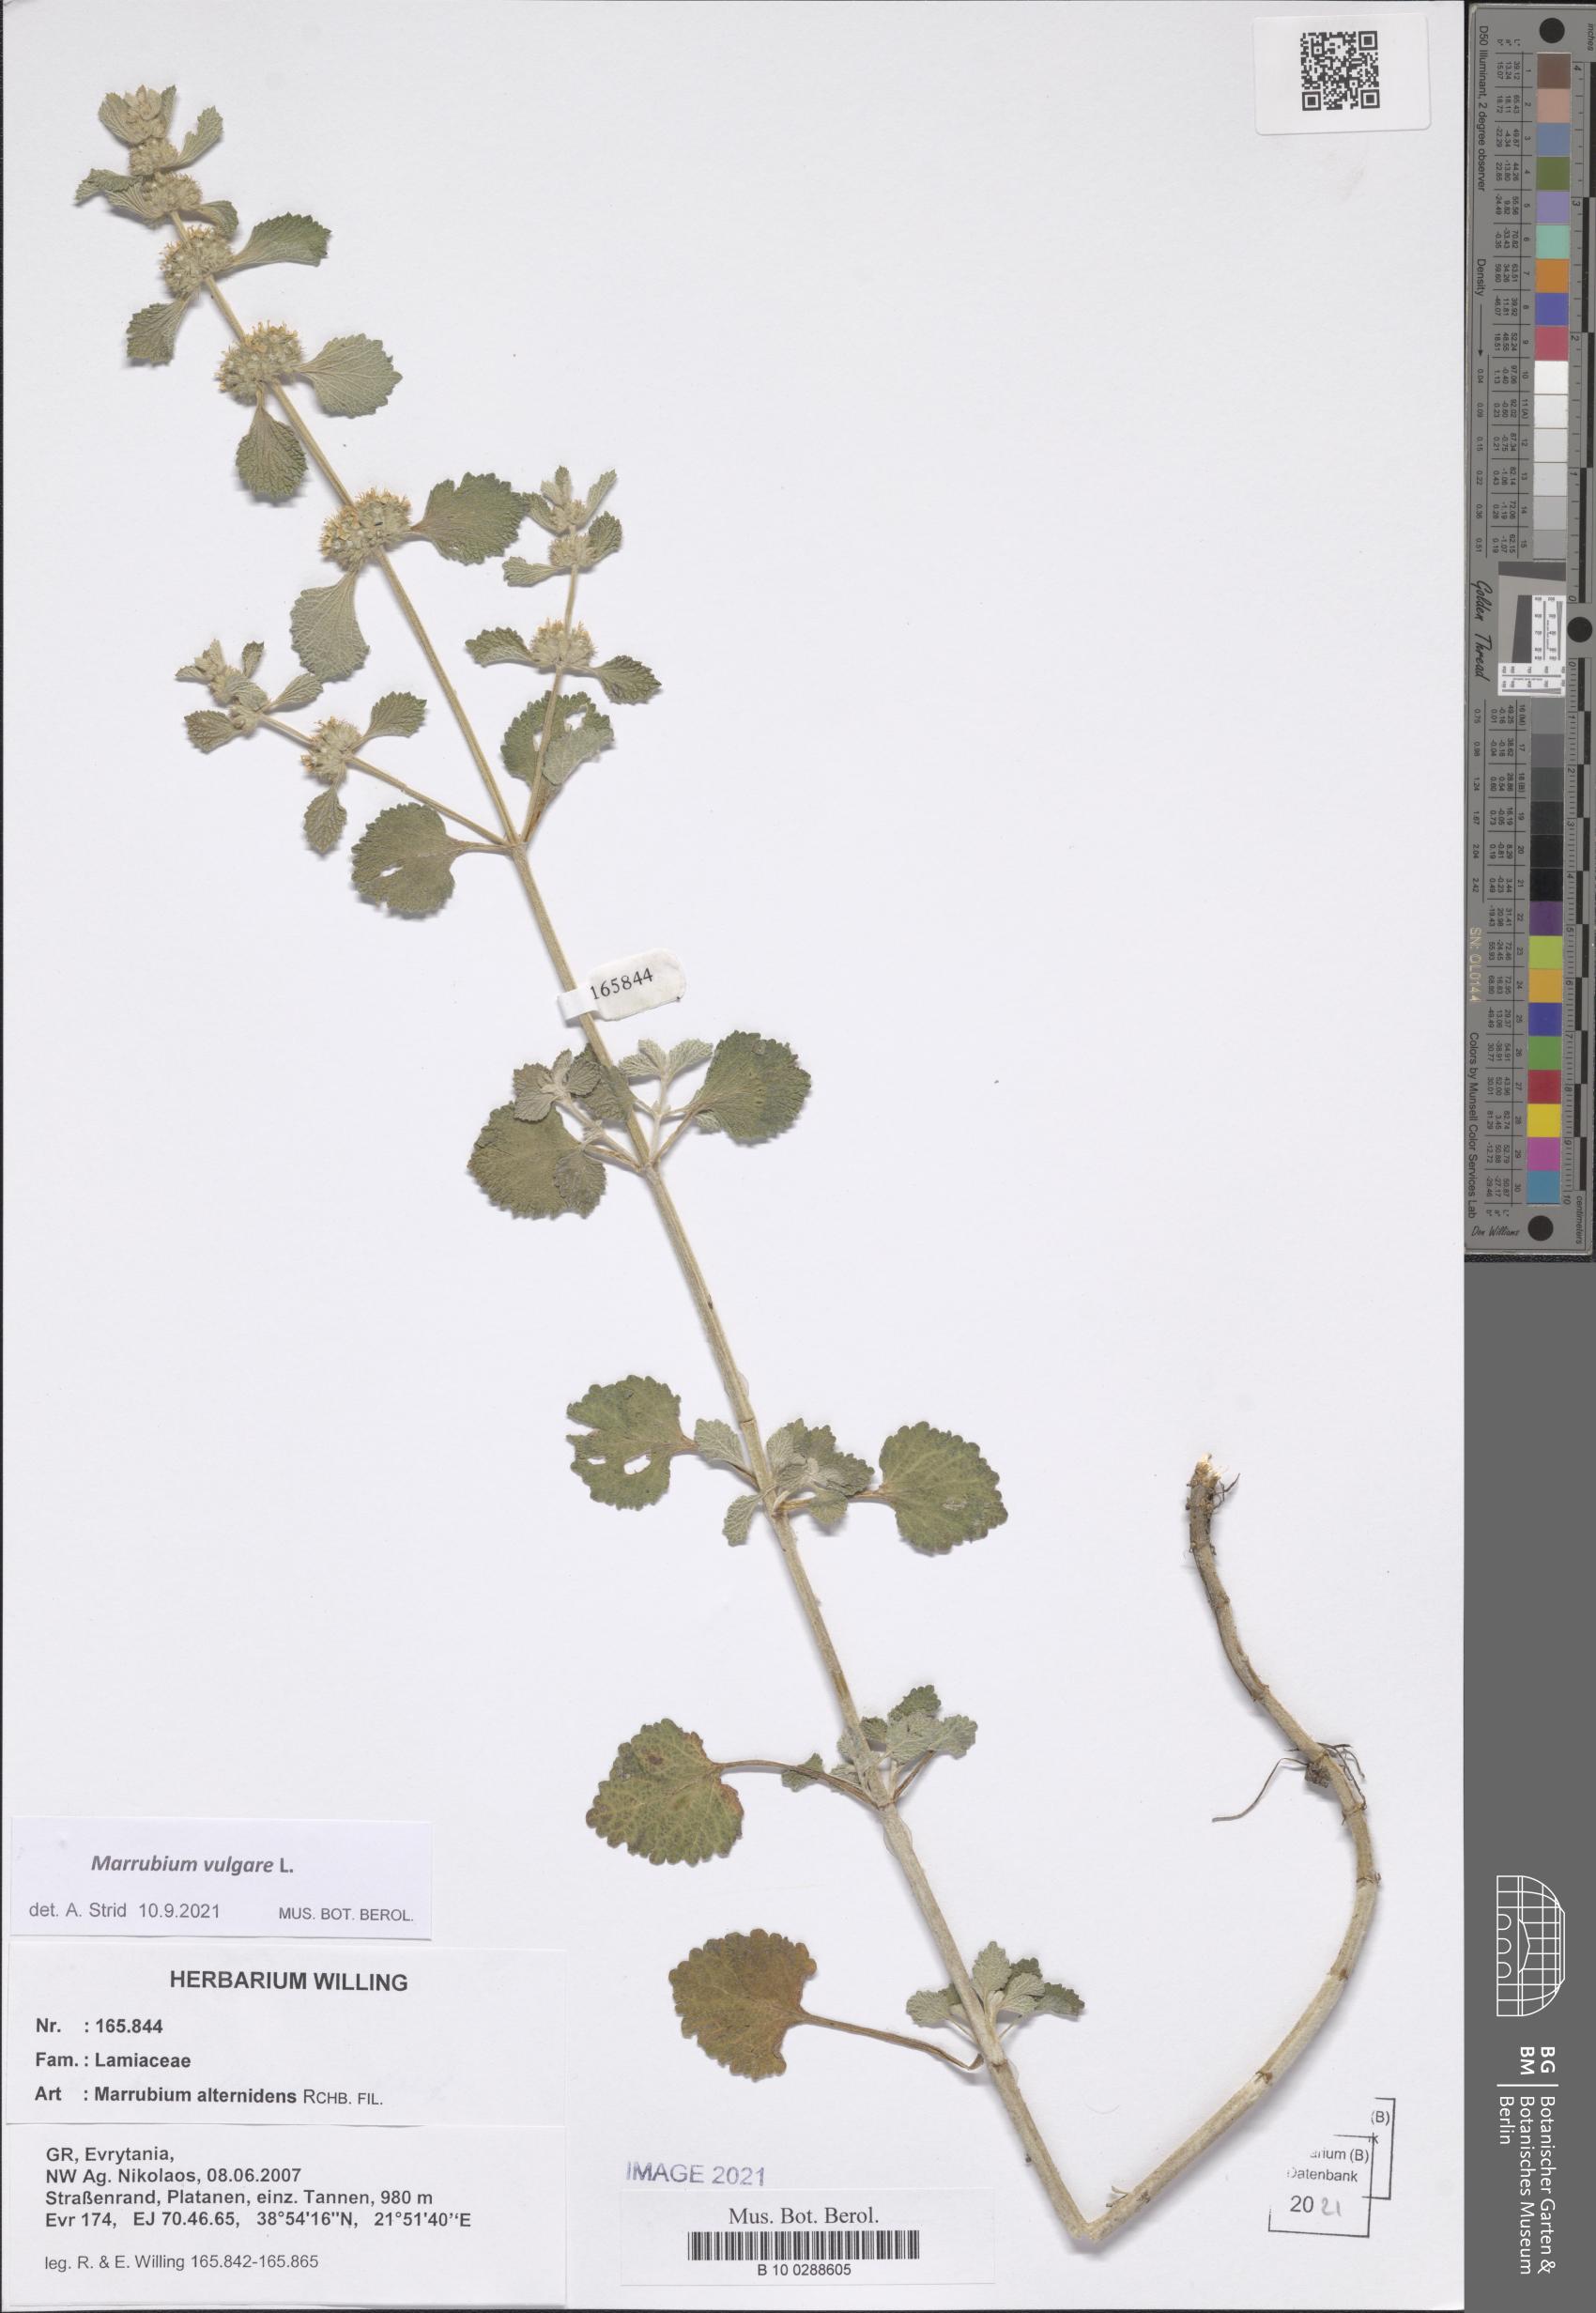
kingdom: Plantae
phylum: Tracheophyta
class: Magnoliopsida
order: Lamiales
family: Lamiaceae
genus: Marrubium
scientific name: Marrubium vulgare
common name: Horehound
